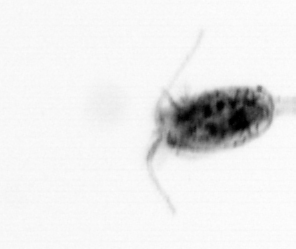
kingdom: Animalia
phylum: Arthropoda
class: Copepoda
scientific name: Copepoda
